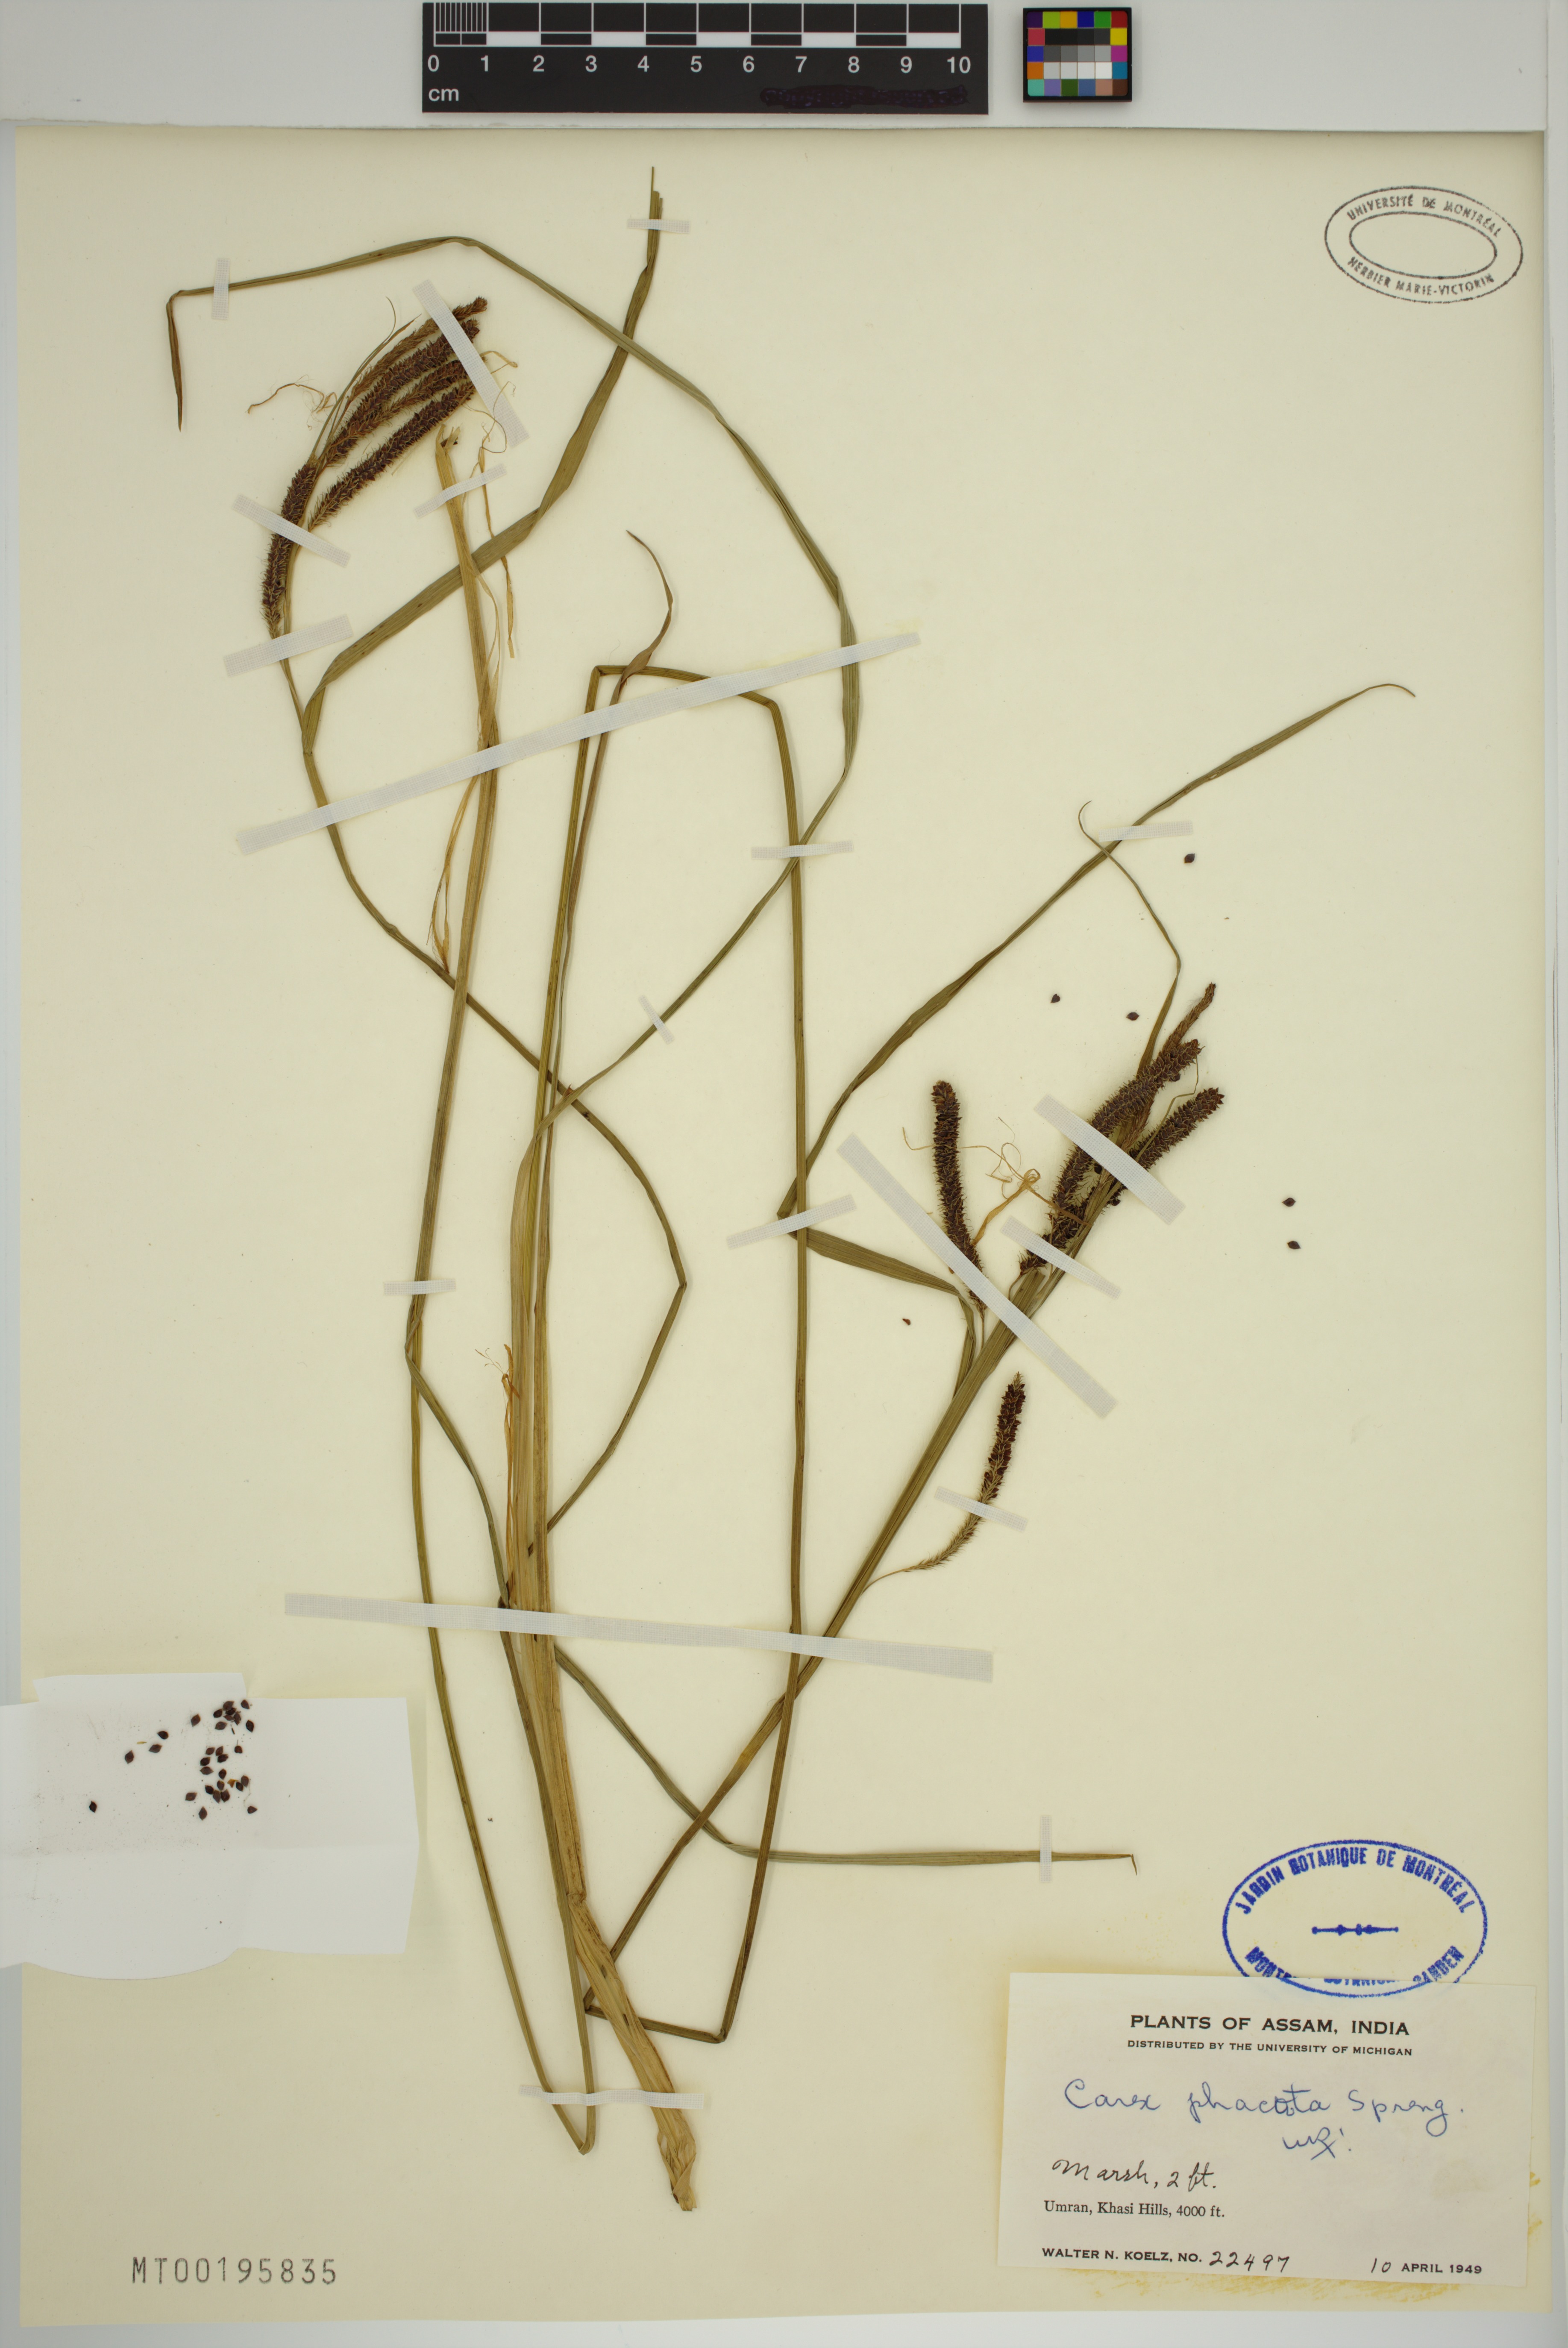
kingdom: Plantae
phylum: Tracheophyta
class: Liliopsida
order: Poales
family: Cyperaceae
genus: Carex
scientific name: Carex phacota
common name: Lakeshore sedge
